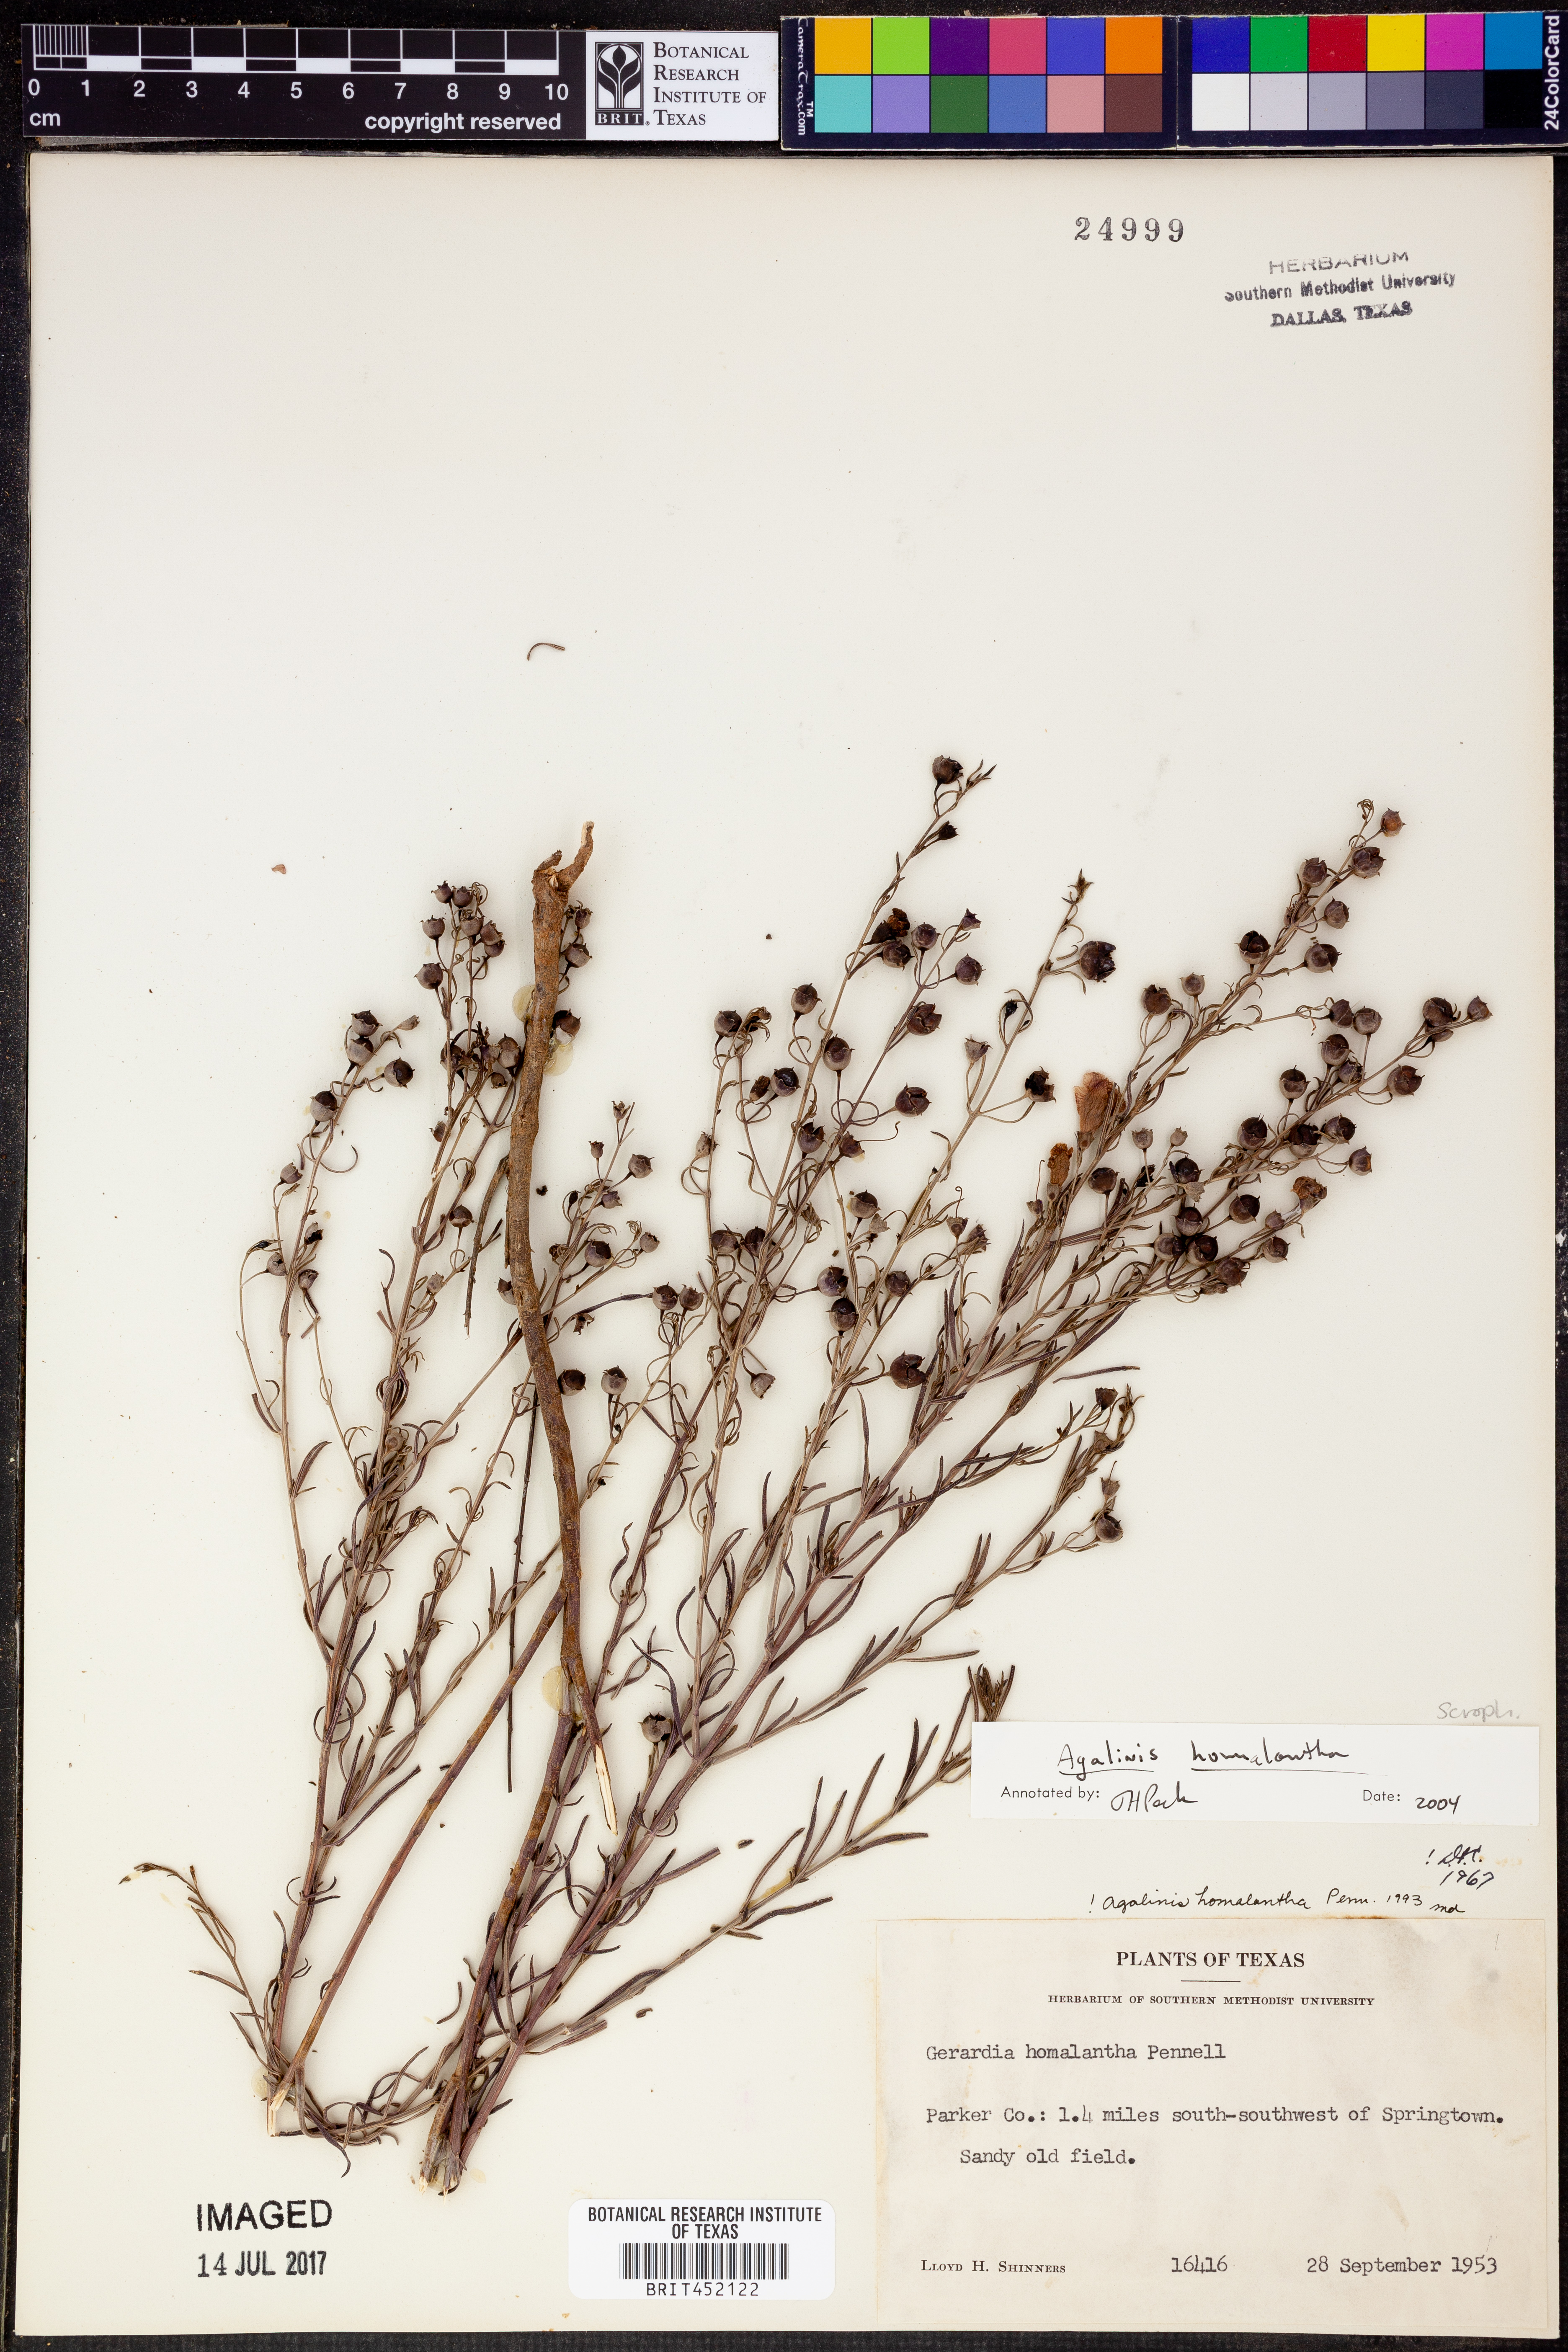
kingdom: Plantae
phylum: Tracheophyta
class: Magnoliopsida
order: Lamiales
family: Orobanchaceae
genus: Agalinis
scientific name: Agalinis homalantha
